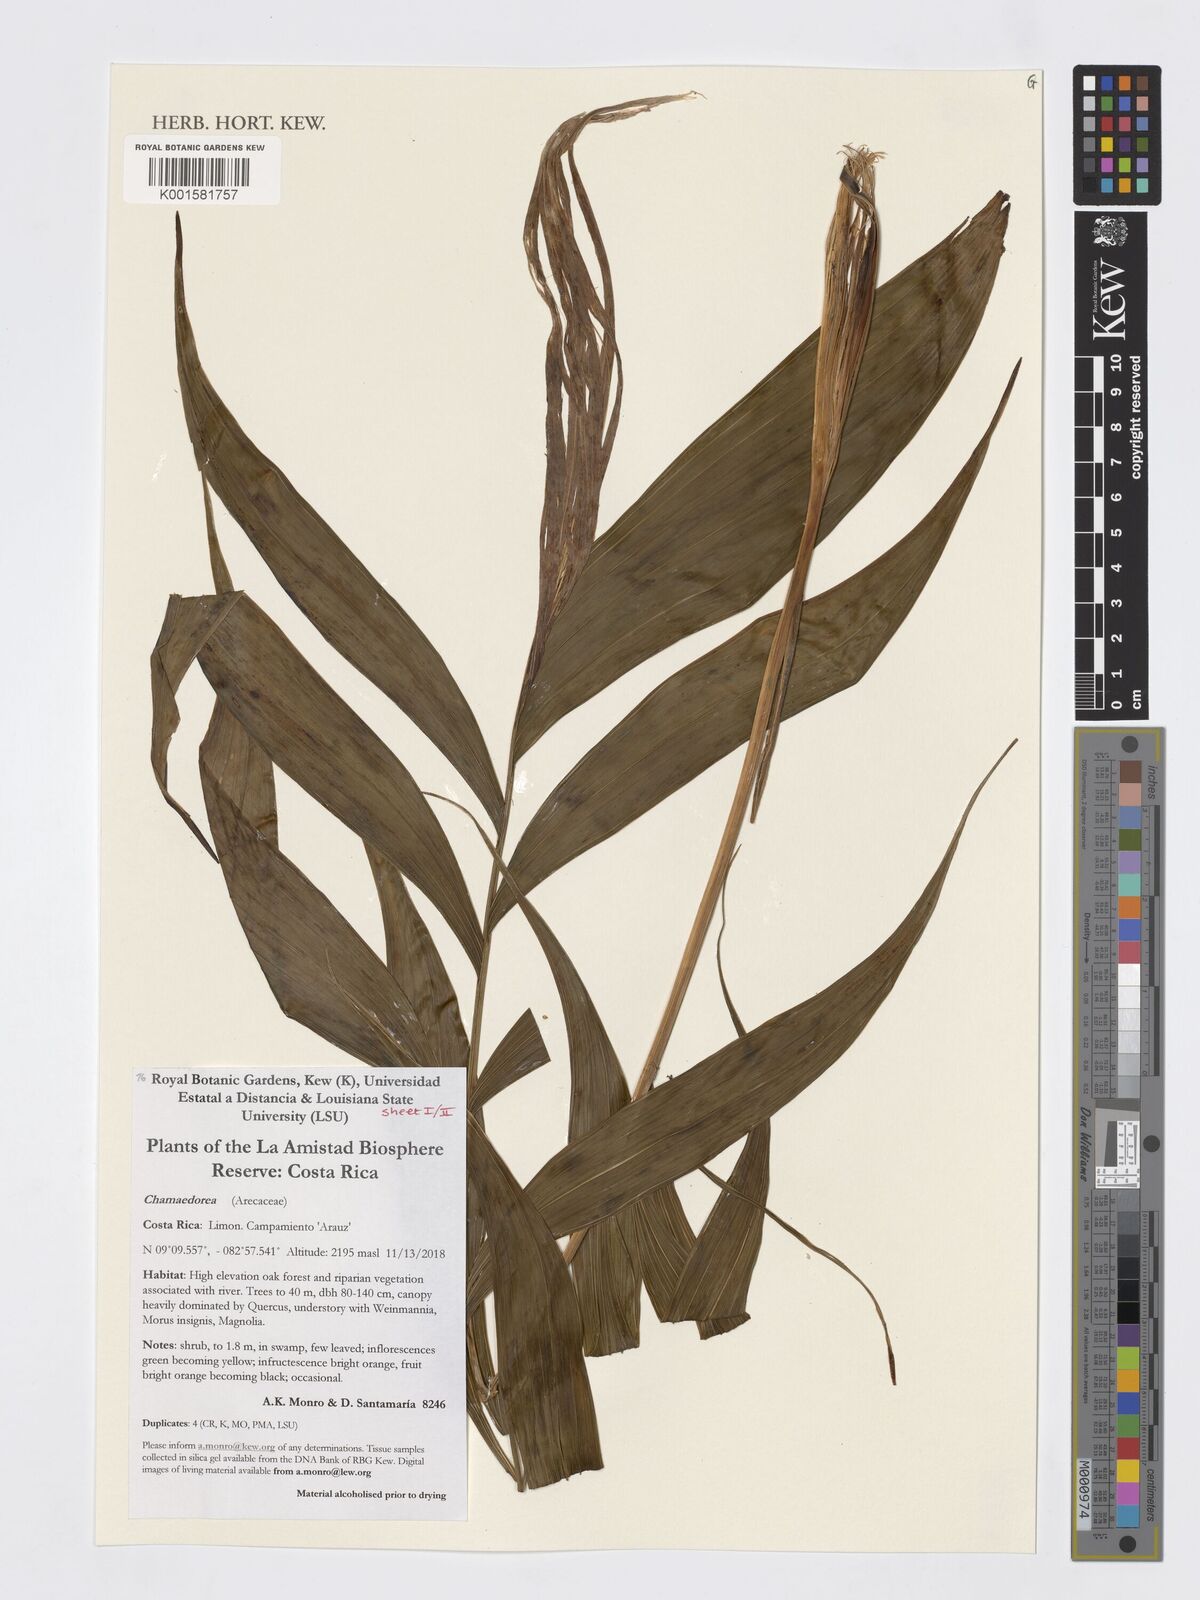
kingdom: Plantae
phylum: Tracheophyta
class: Liliopsida
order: Arecales
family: Arecaceae
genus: Chamaedorea
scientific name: Chamaedorea
